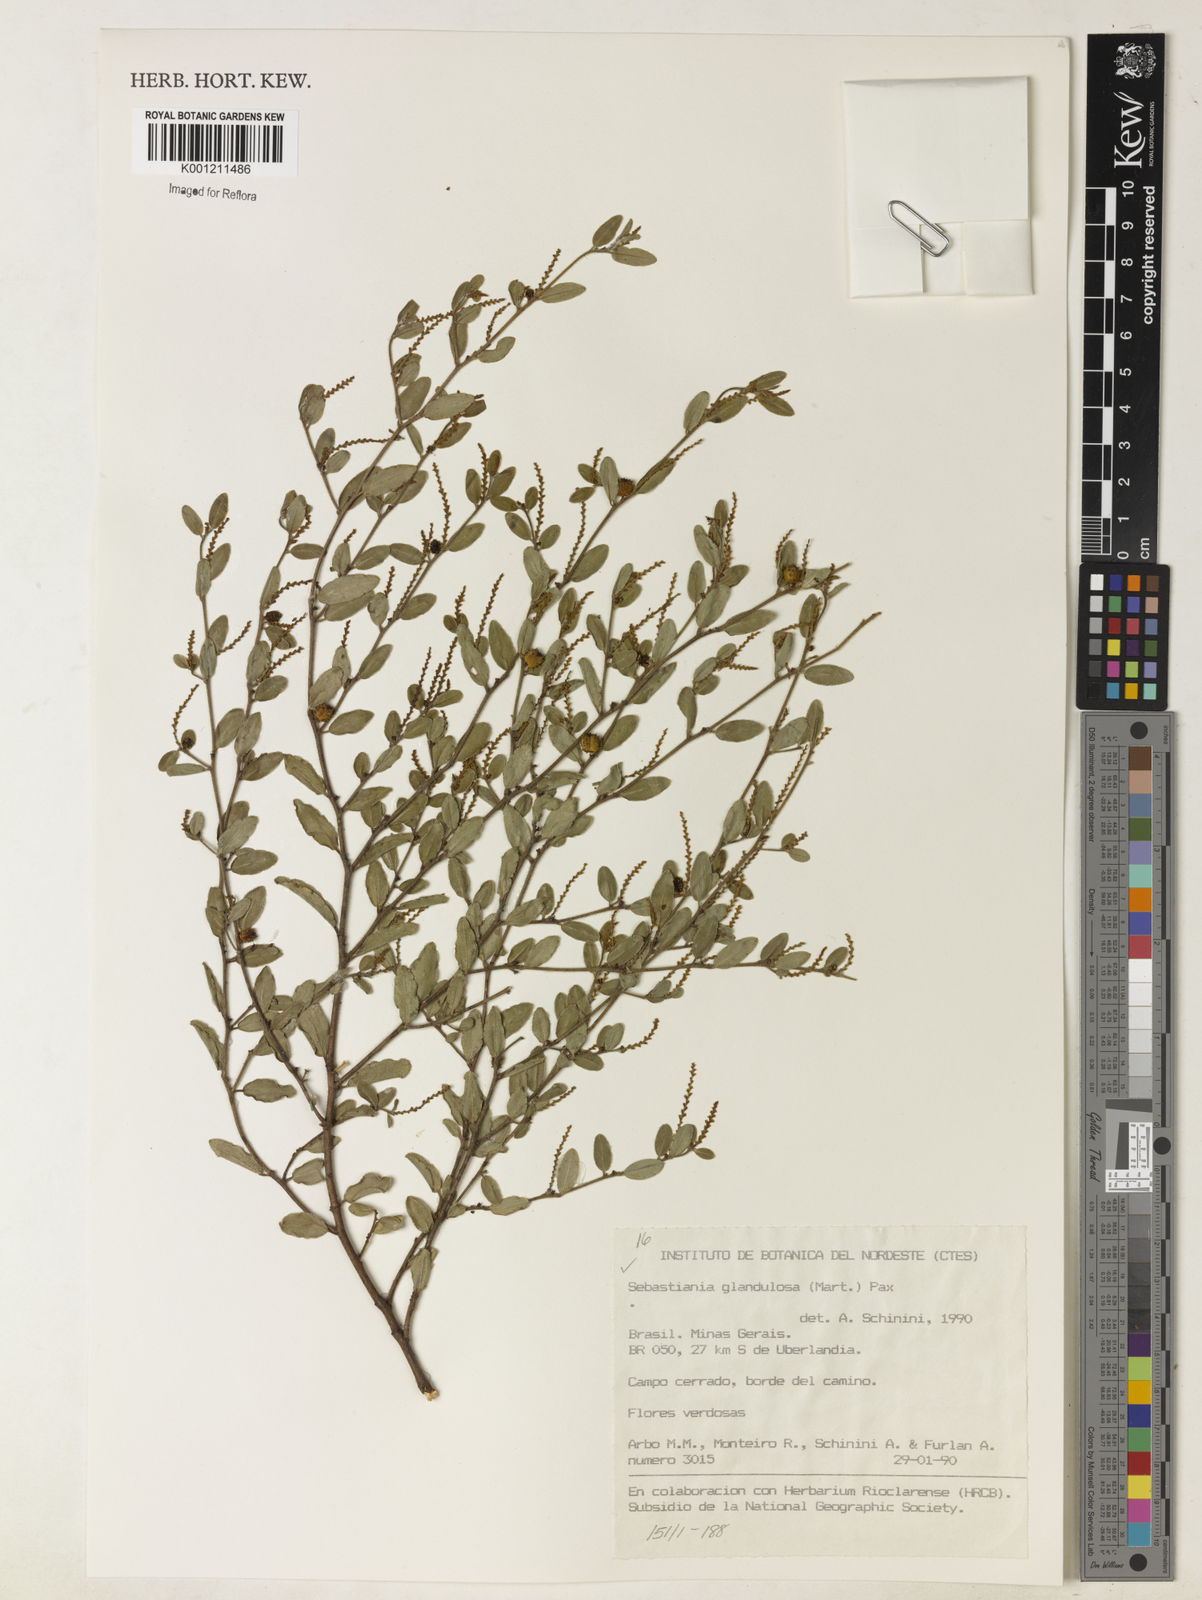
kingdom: Plantae
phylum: Tracheophyta
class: Magnoliopsida
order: Malpighiales
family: Euphorbiaceae
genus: Microstachys
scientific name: Microstachys glandulosa
